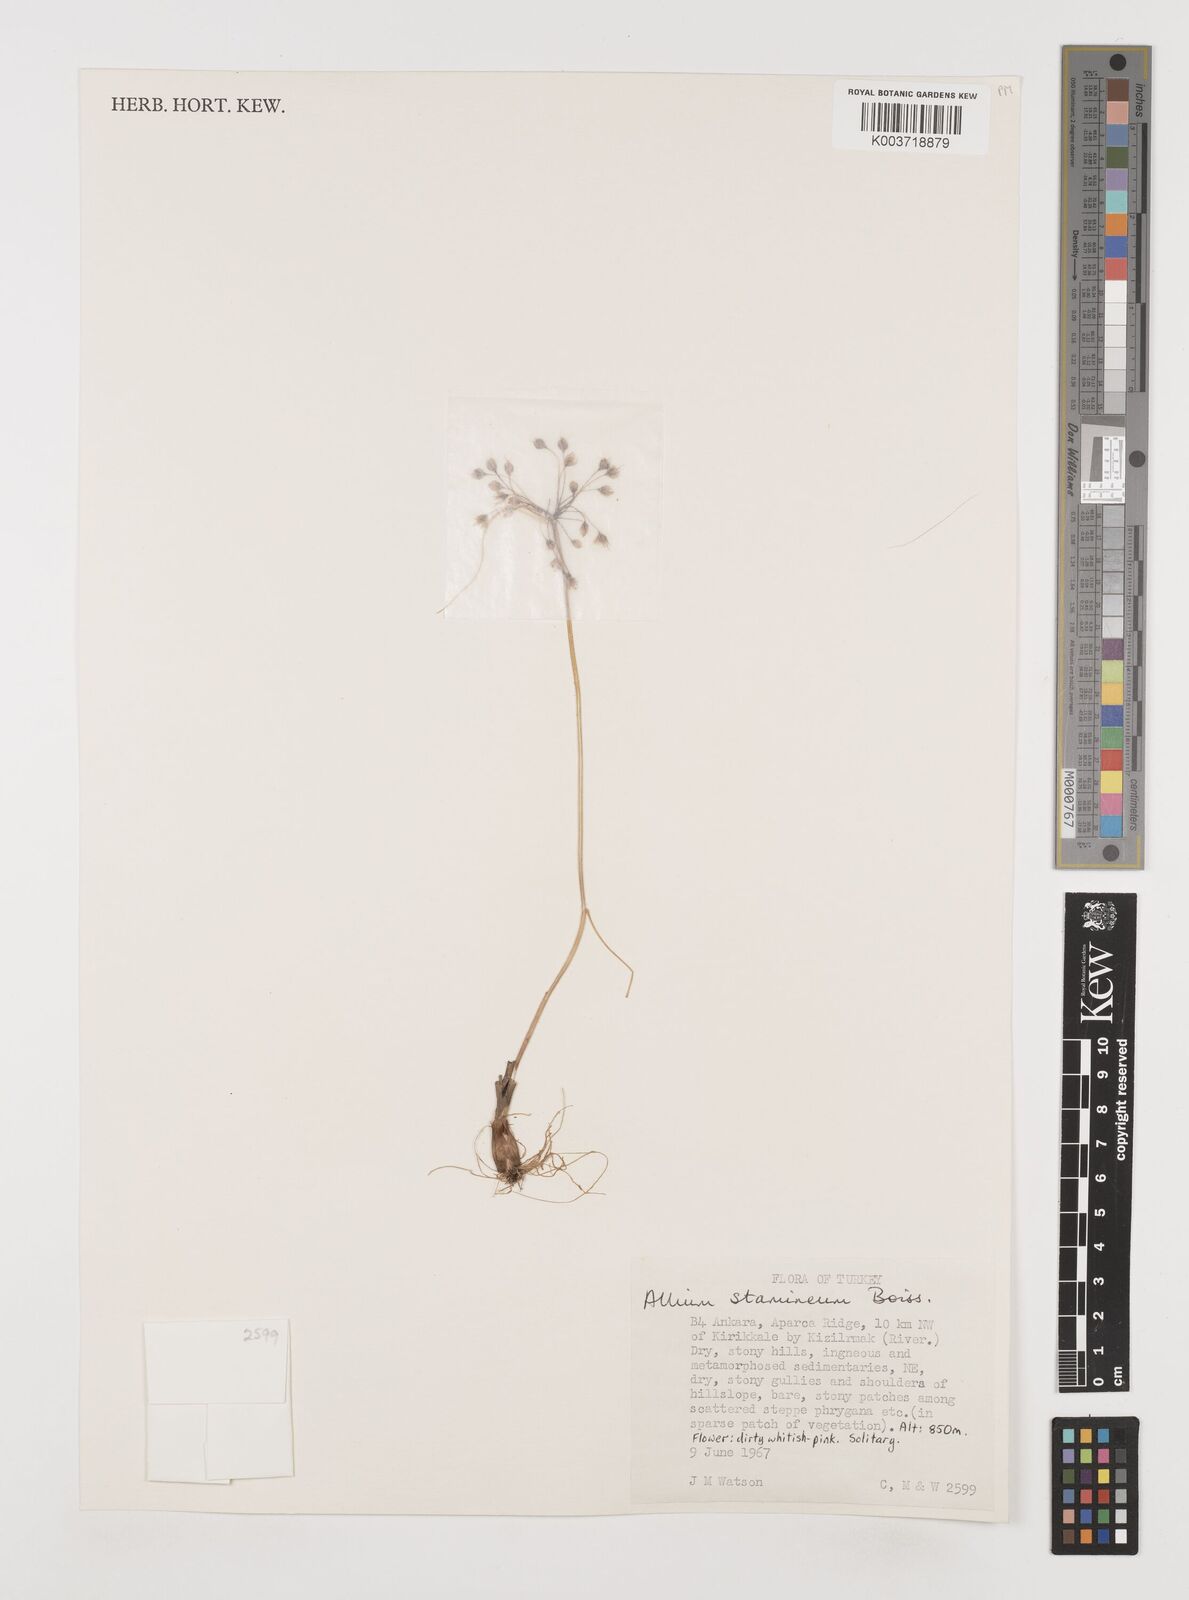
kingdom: Plantae
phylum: Tracheophyta
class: Liliopsida
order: Asparagales
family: Amaryllidaceae
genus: Allium
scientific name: Allium stamineum
